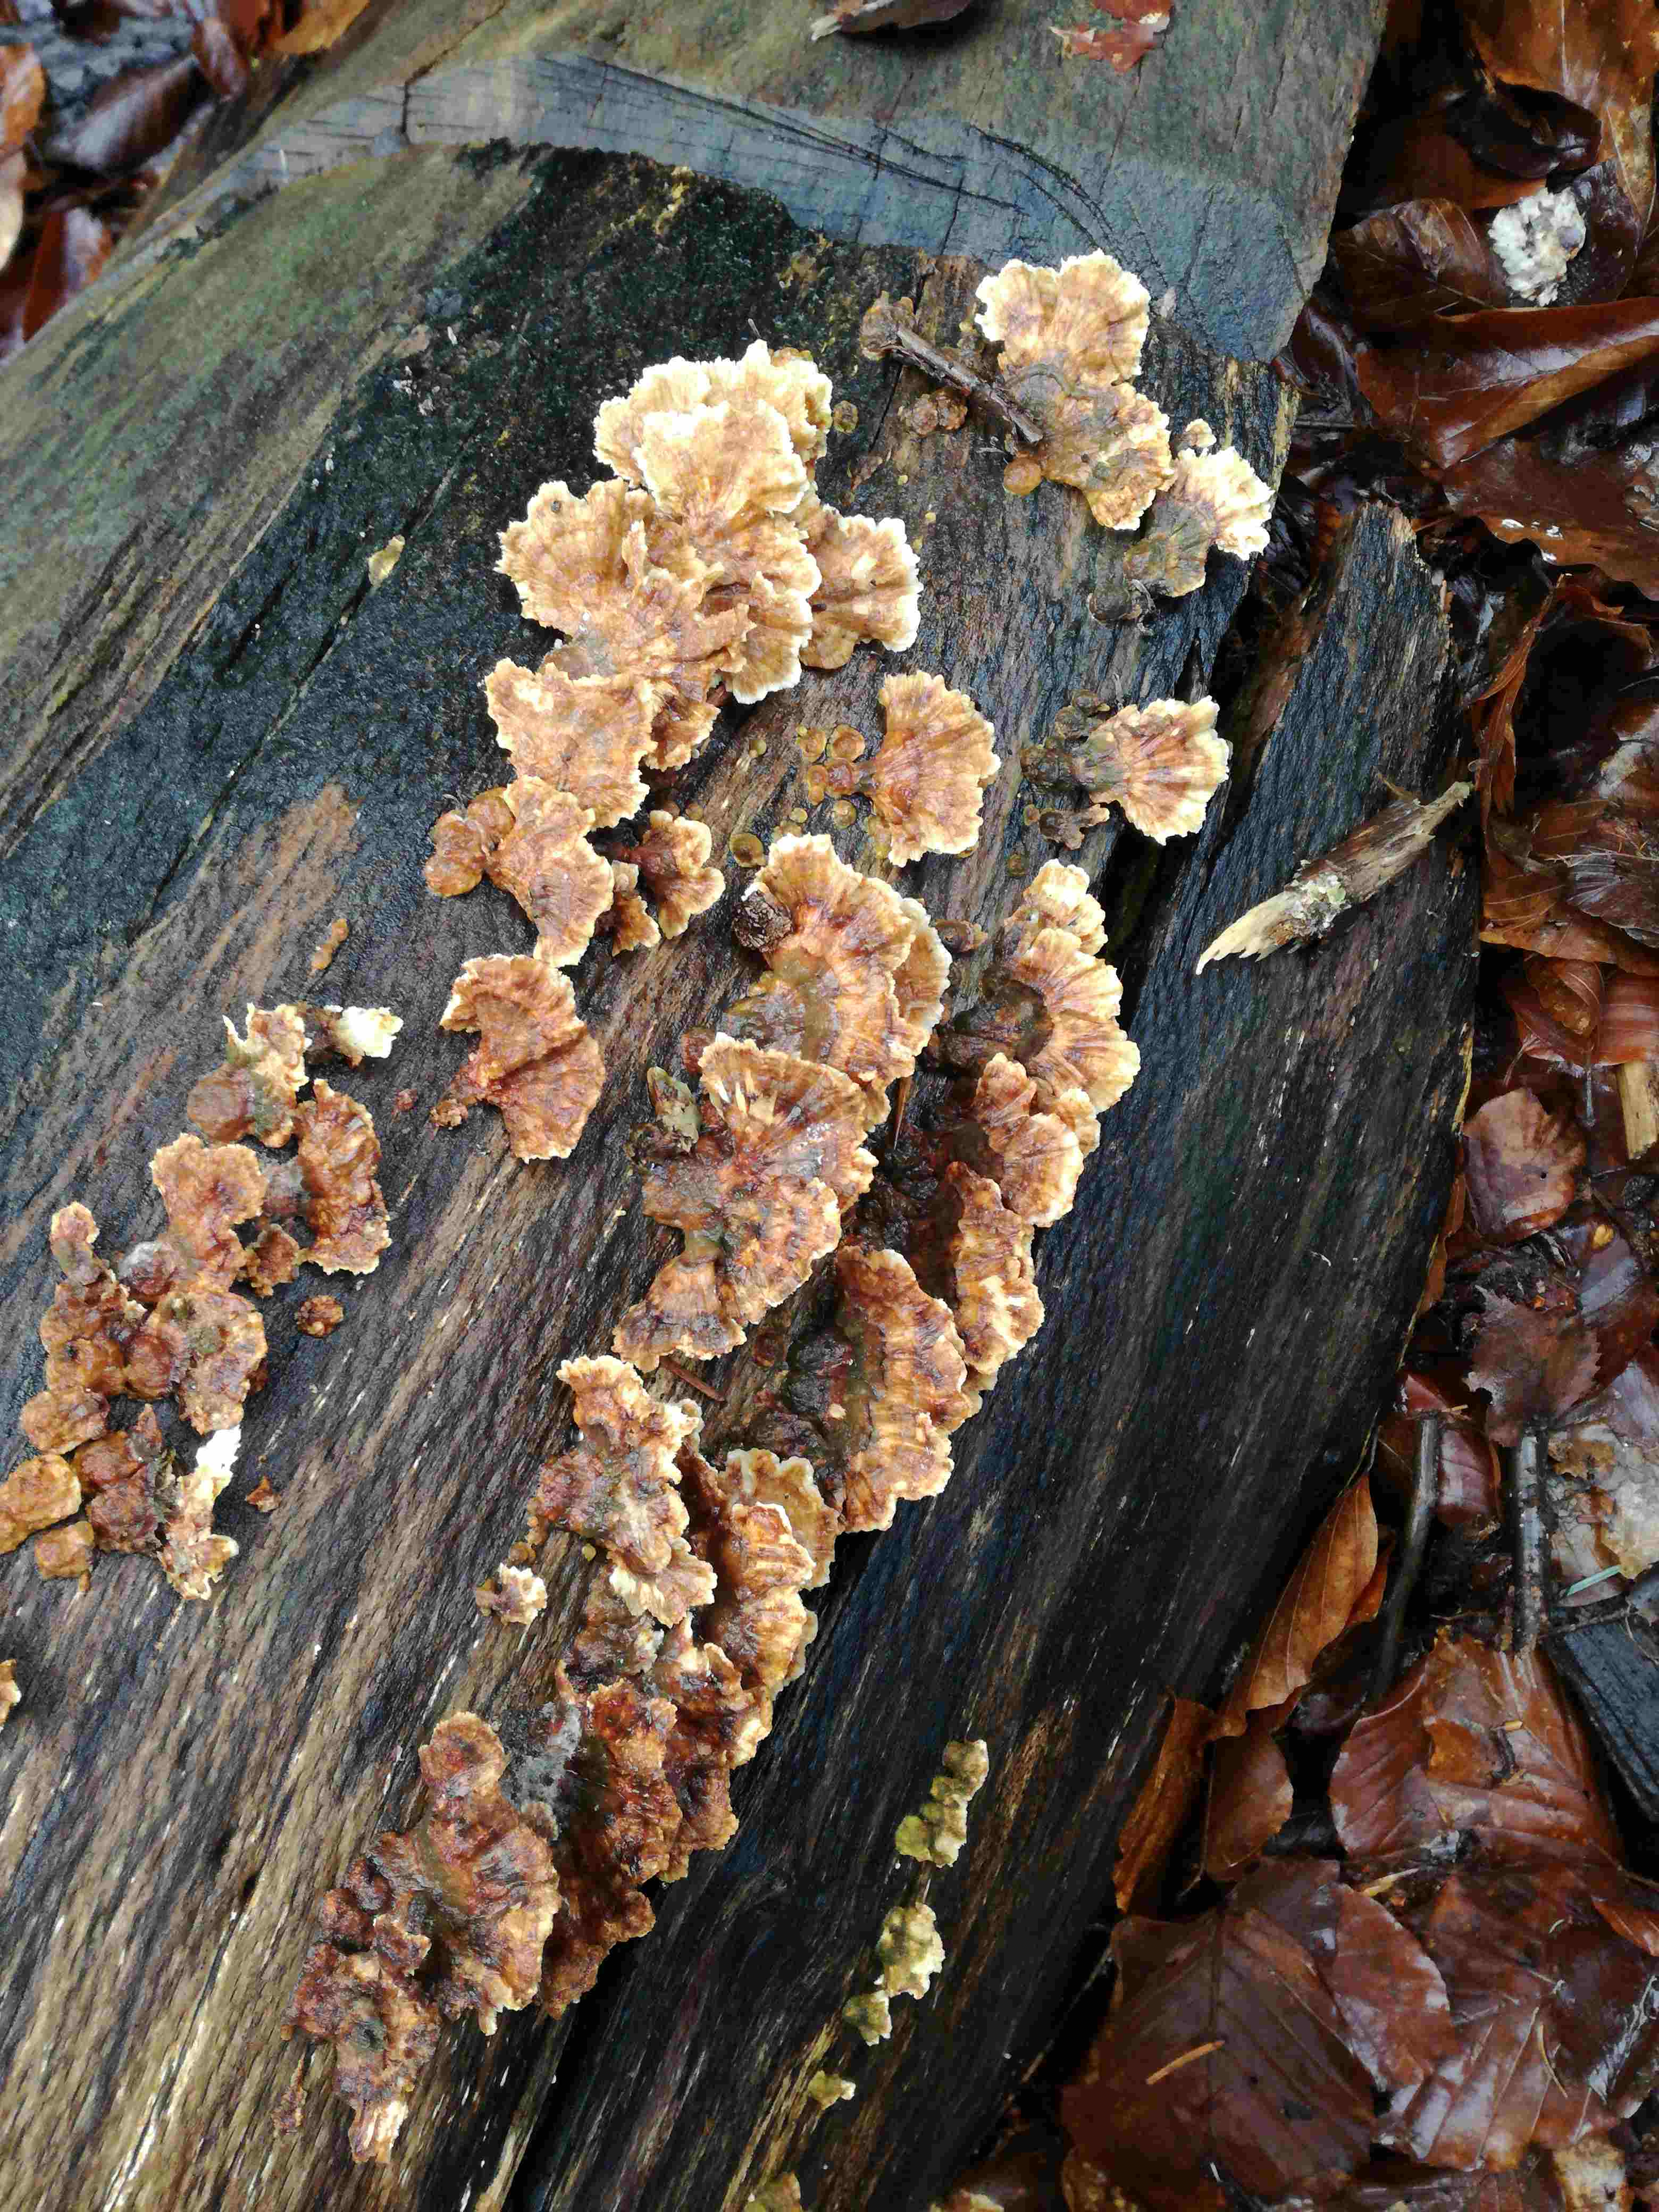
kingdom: Fungi
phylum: Basidiomycota
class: Agaricomycetes
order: Polyporales
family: Polyporaceae
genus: Trametes
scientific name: Trametes versicolor
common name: broget læderporesvamp
